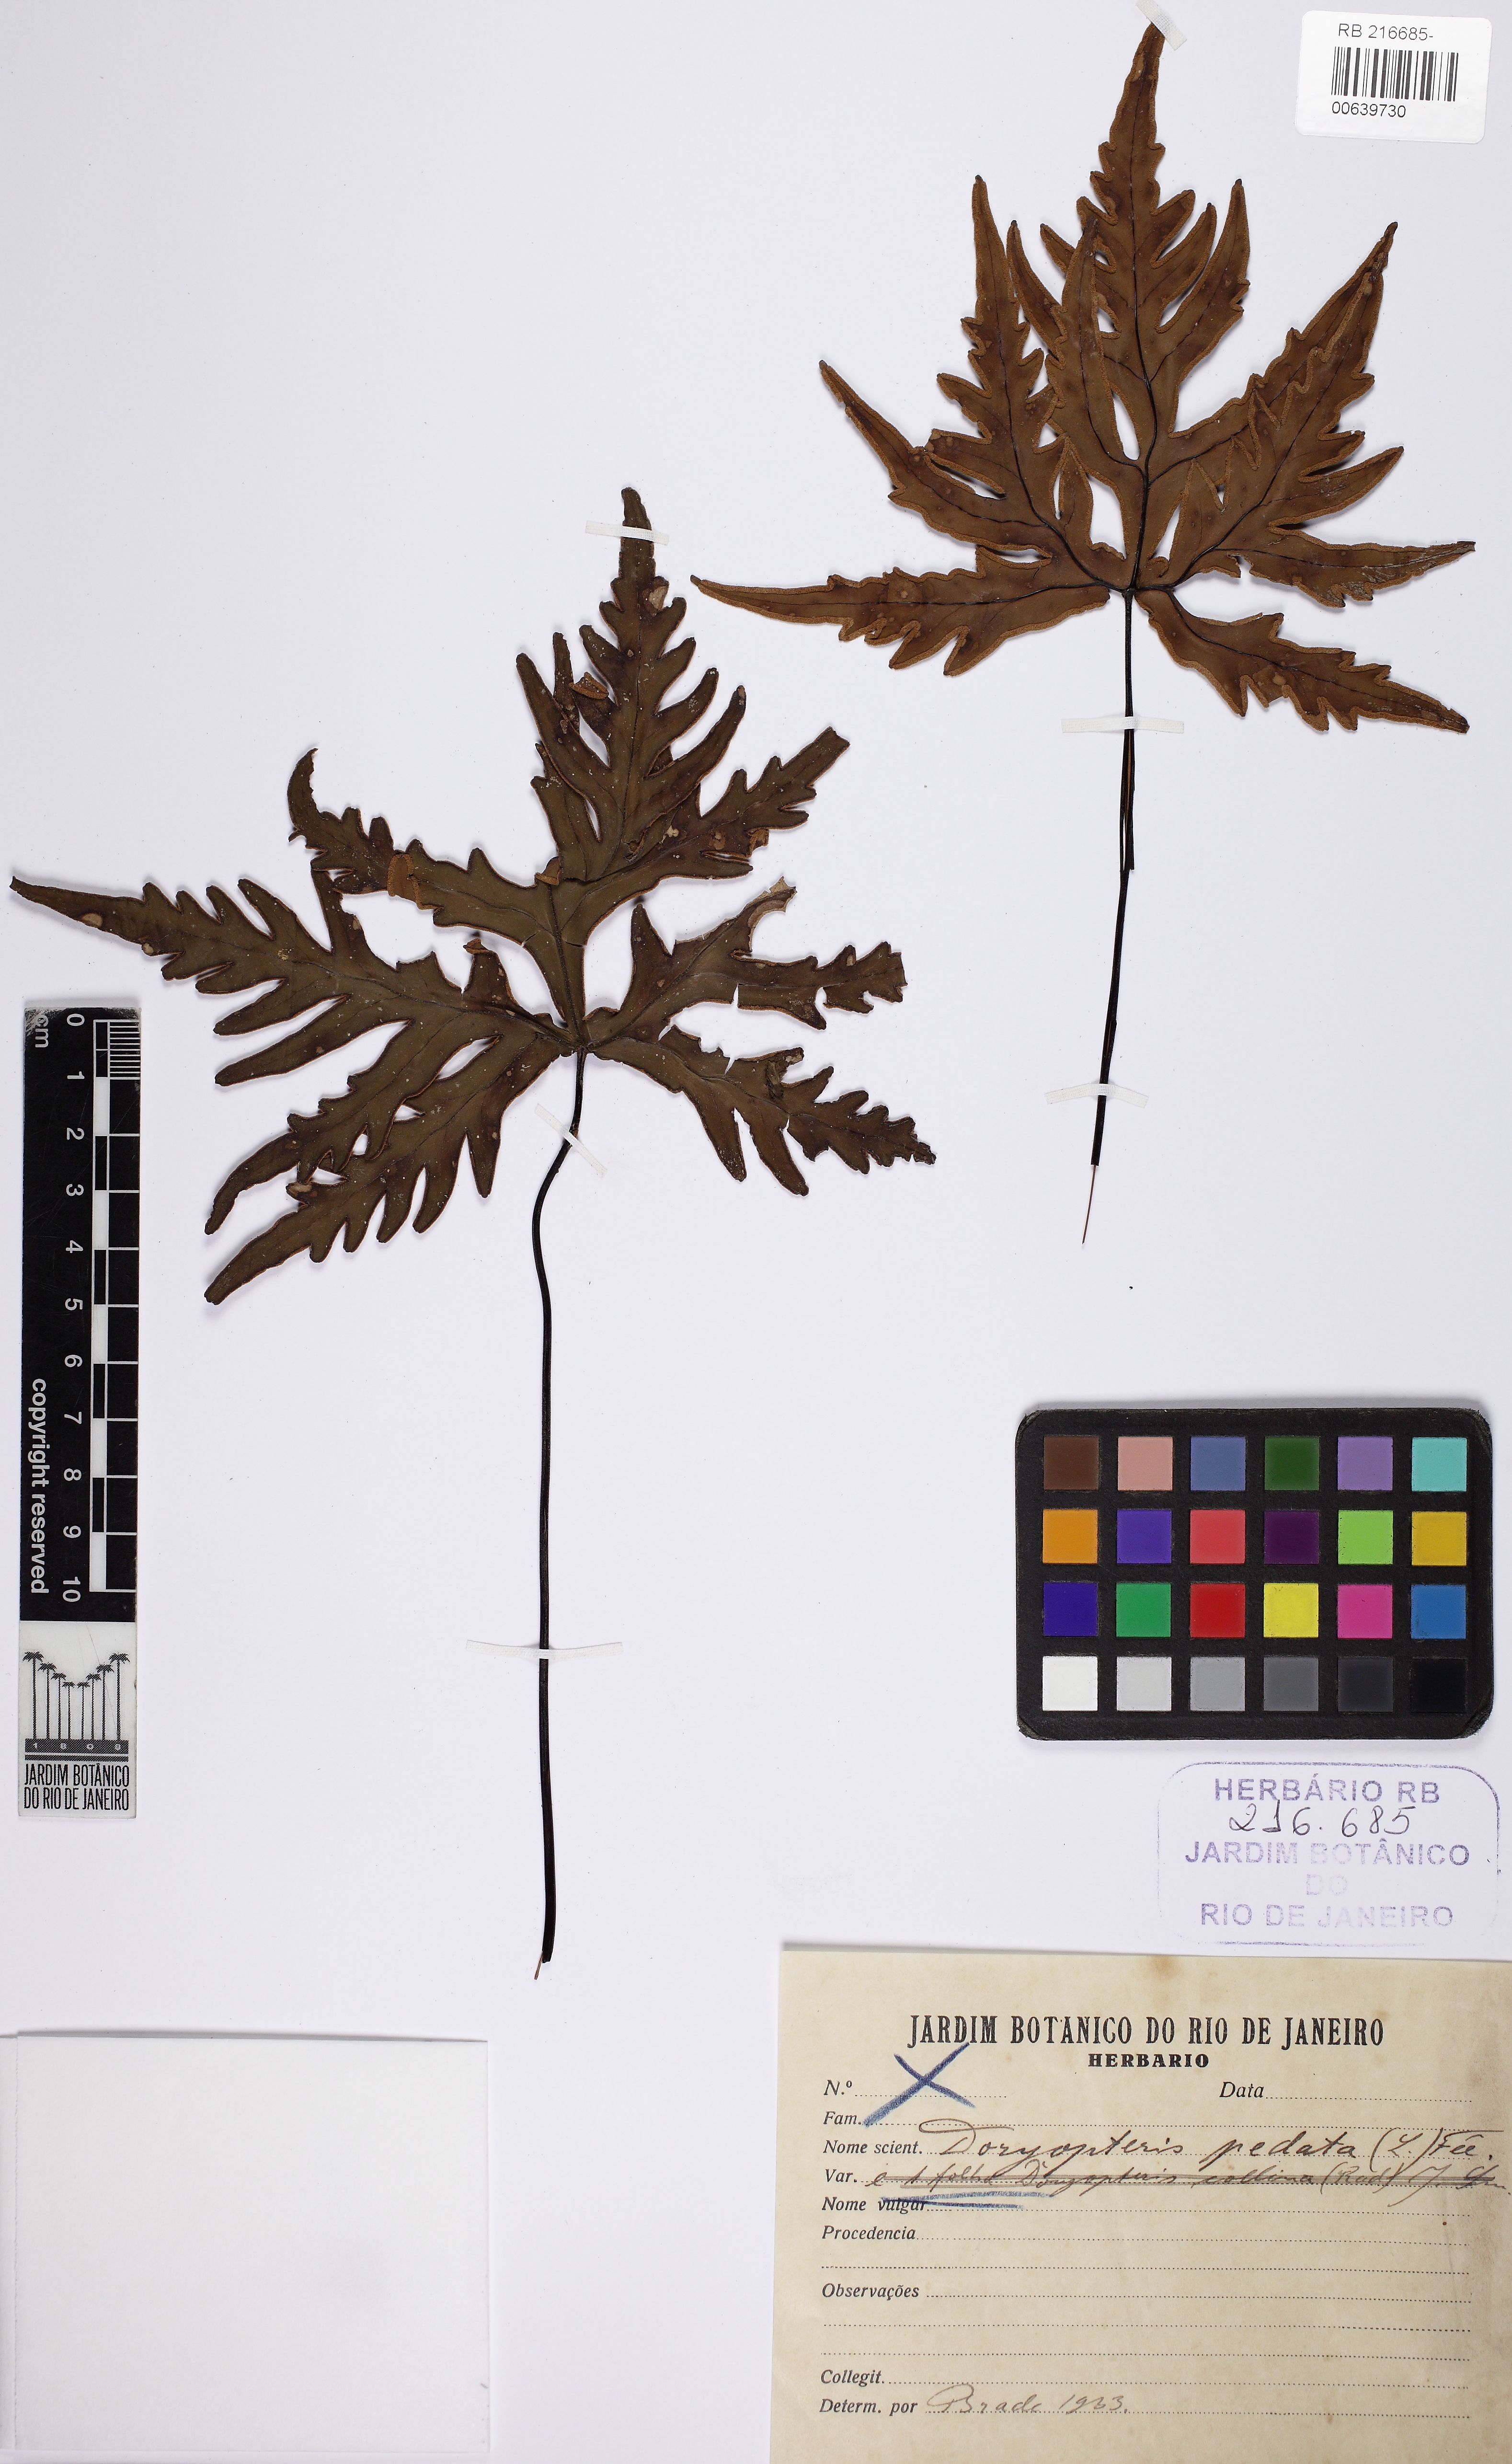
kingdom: Plantae
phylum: Tracheophyta
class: Polypodiopsida
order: Polypodiales
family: Pteridaceae
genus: Doryopteris
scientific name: Doryopteris pentagona
